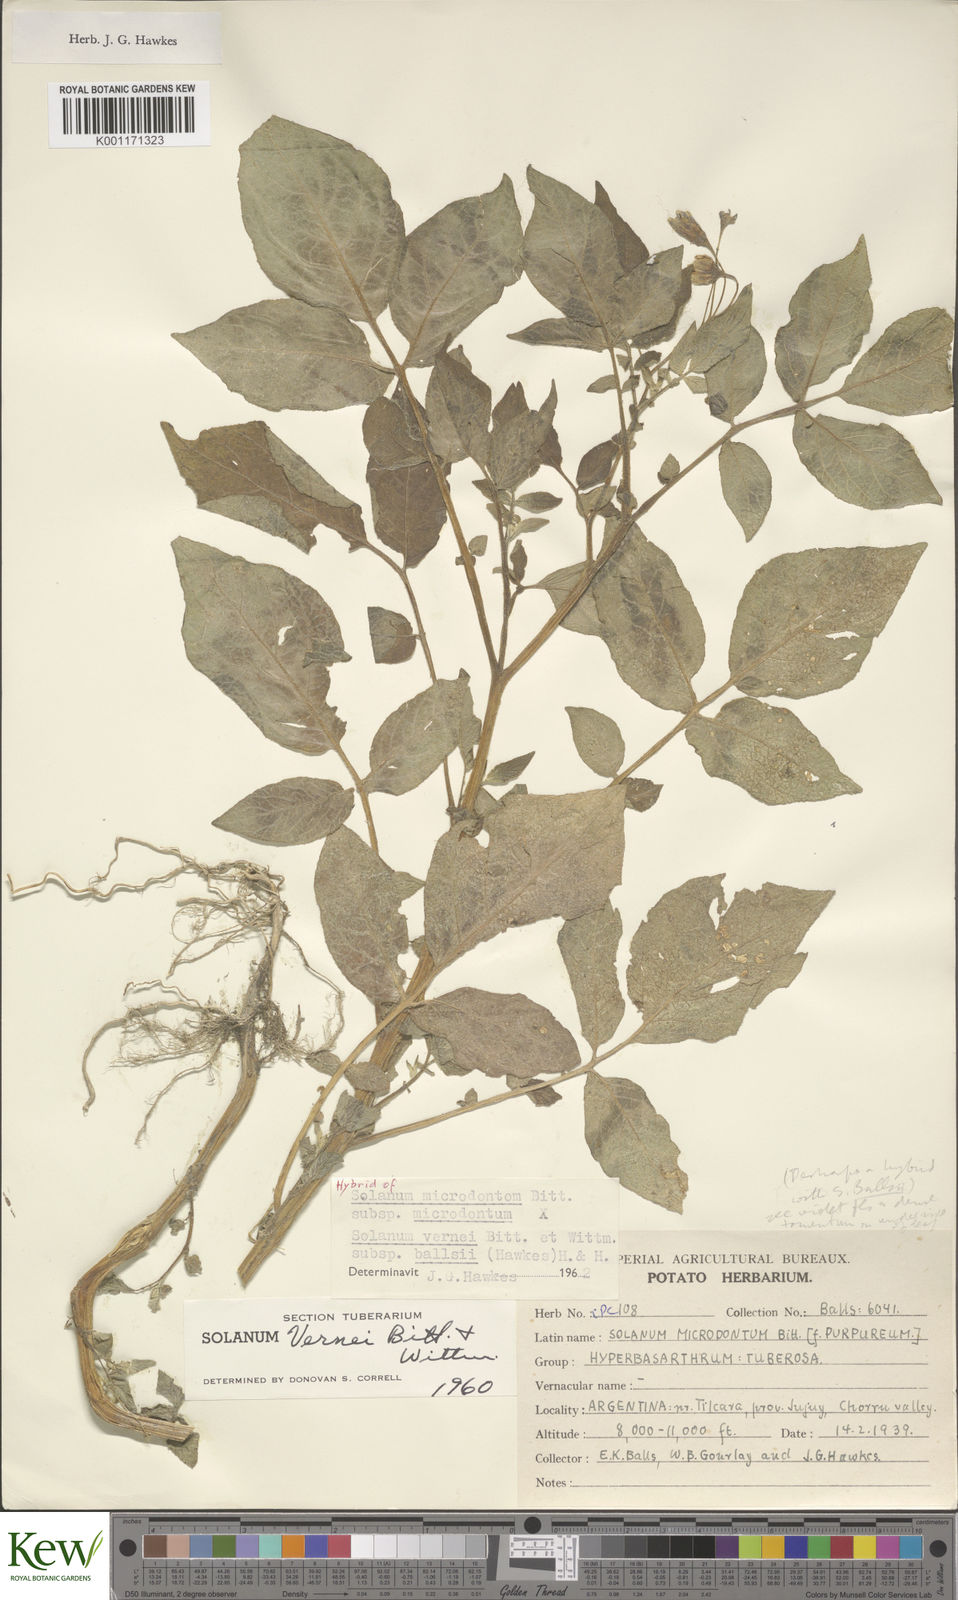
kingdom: Plantae
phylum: Tracheophyta
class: Magnoliopsida
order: Solanales
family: Solanaceae
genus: Solanum
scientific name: Solanum microdontum
